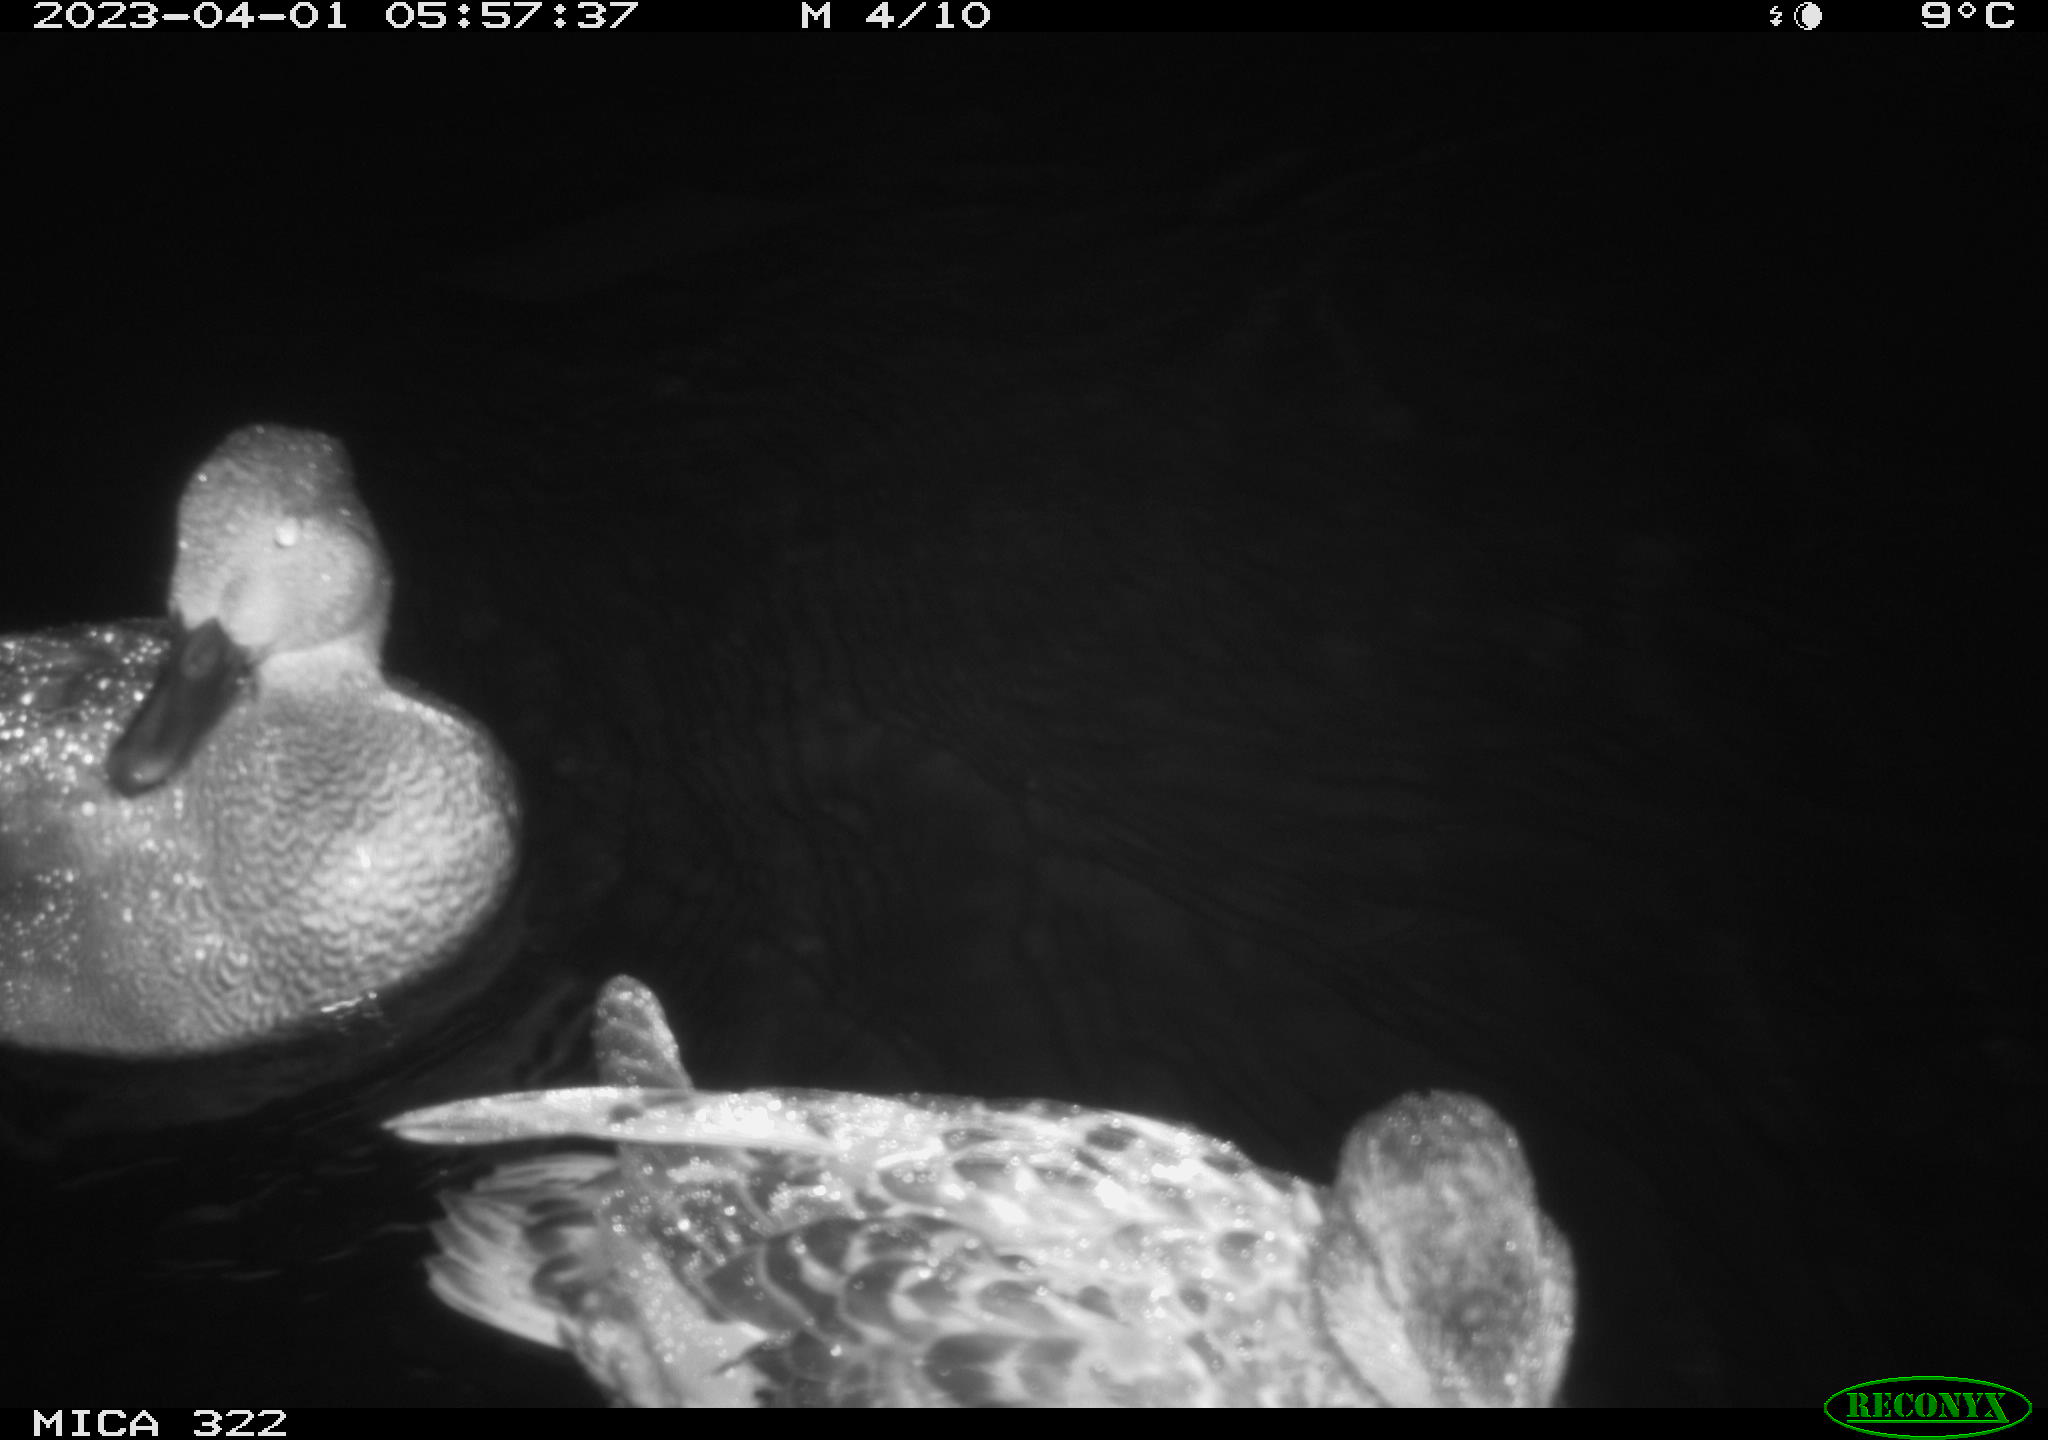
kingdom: Animalia
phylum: Chordata
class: Aves
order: Anseriformes
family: Anatidae
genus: Anas
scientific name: Anas
